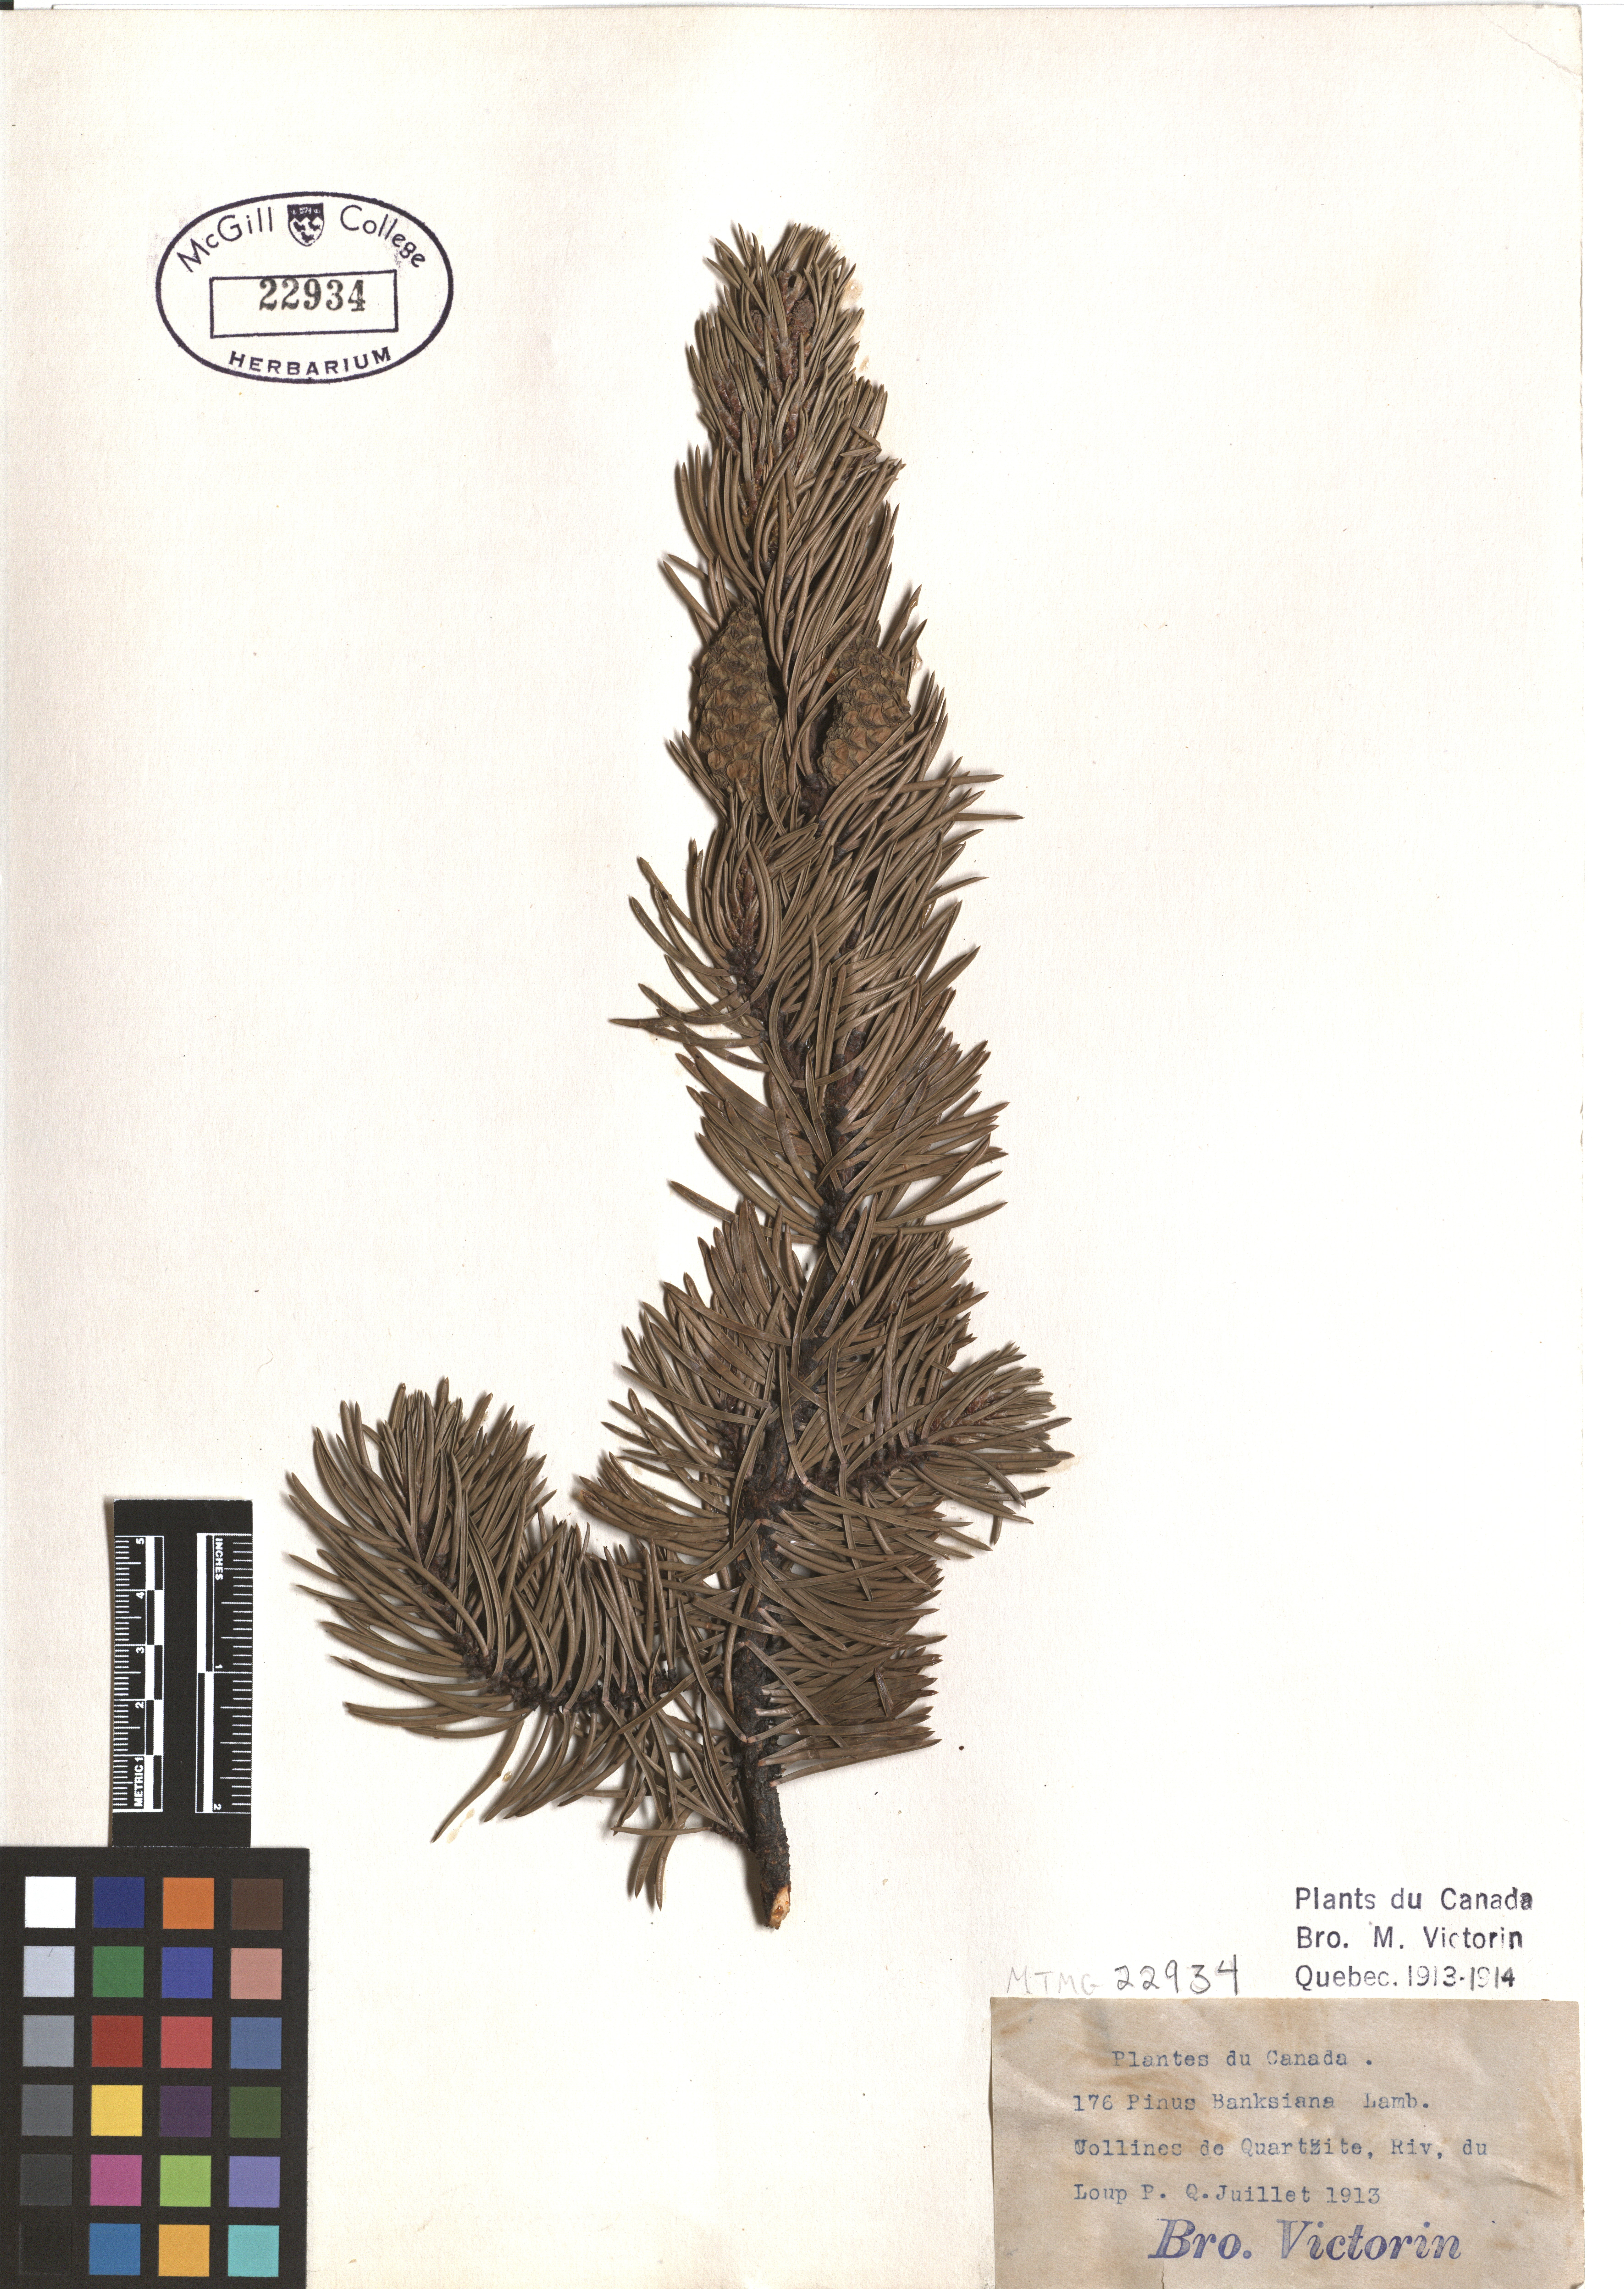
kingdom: Plantae
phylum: Tracheophyta
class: Pinopsida
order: Pinales
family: Pinaceae
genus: Pinus
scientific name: Pinus banksiana
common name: Jack pine
